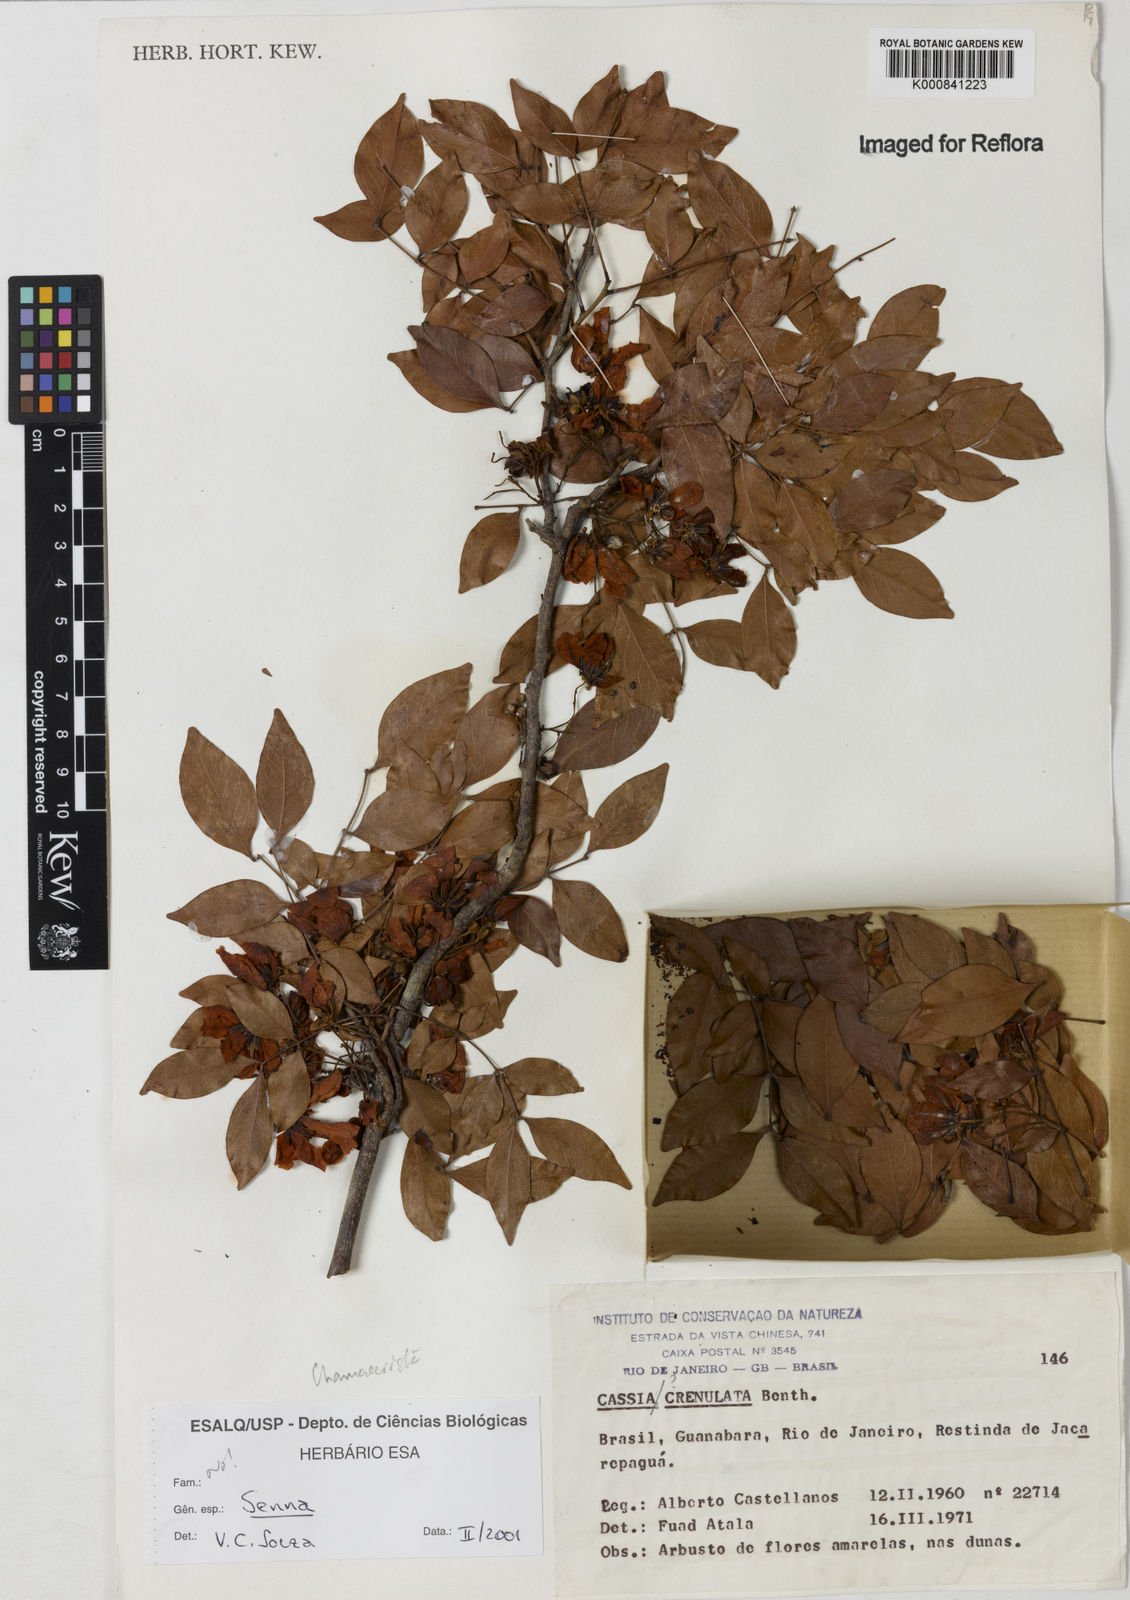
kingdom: Plantae
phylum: Tracheophyta
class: Magnoliopsida
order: Fabales
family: Fabaceae
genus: Senna
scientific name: Senna
